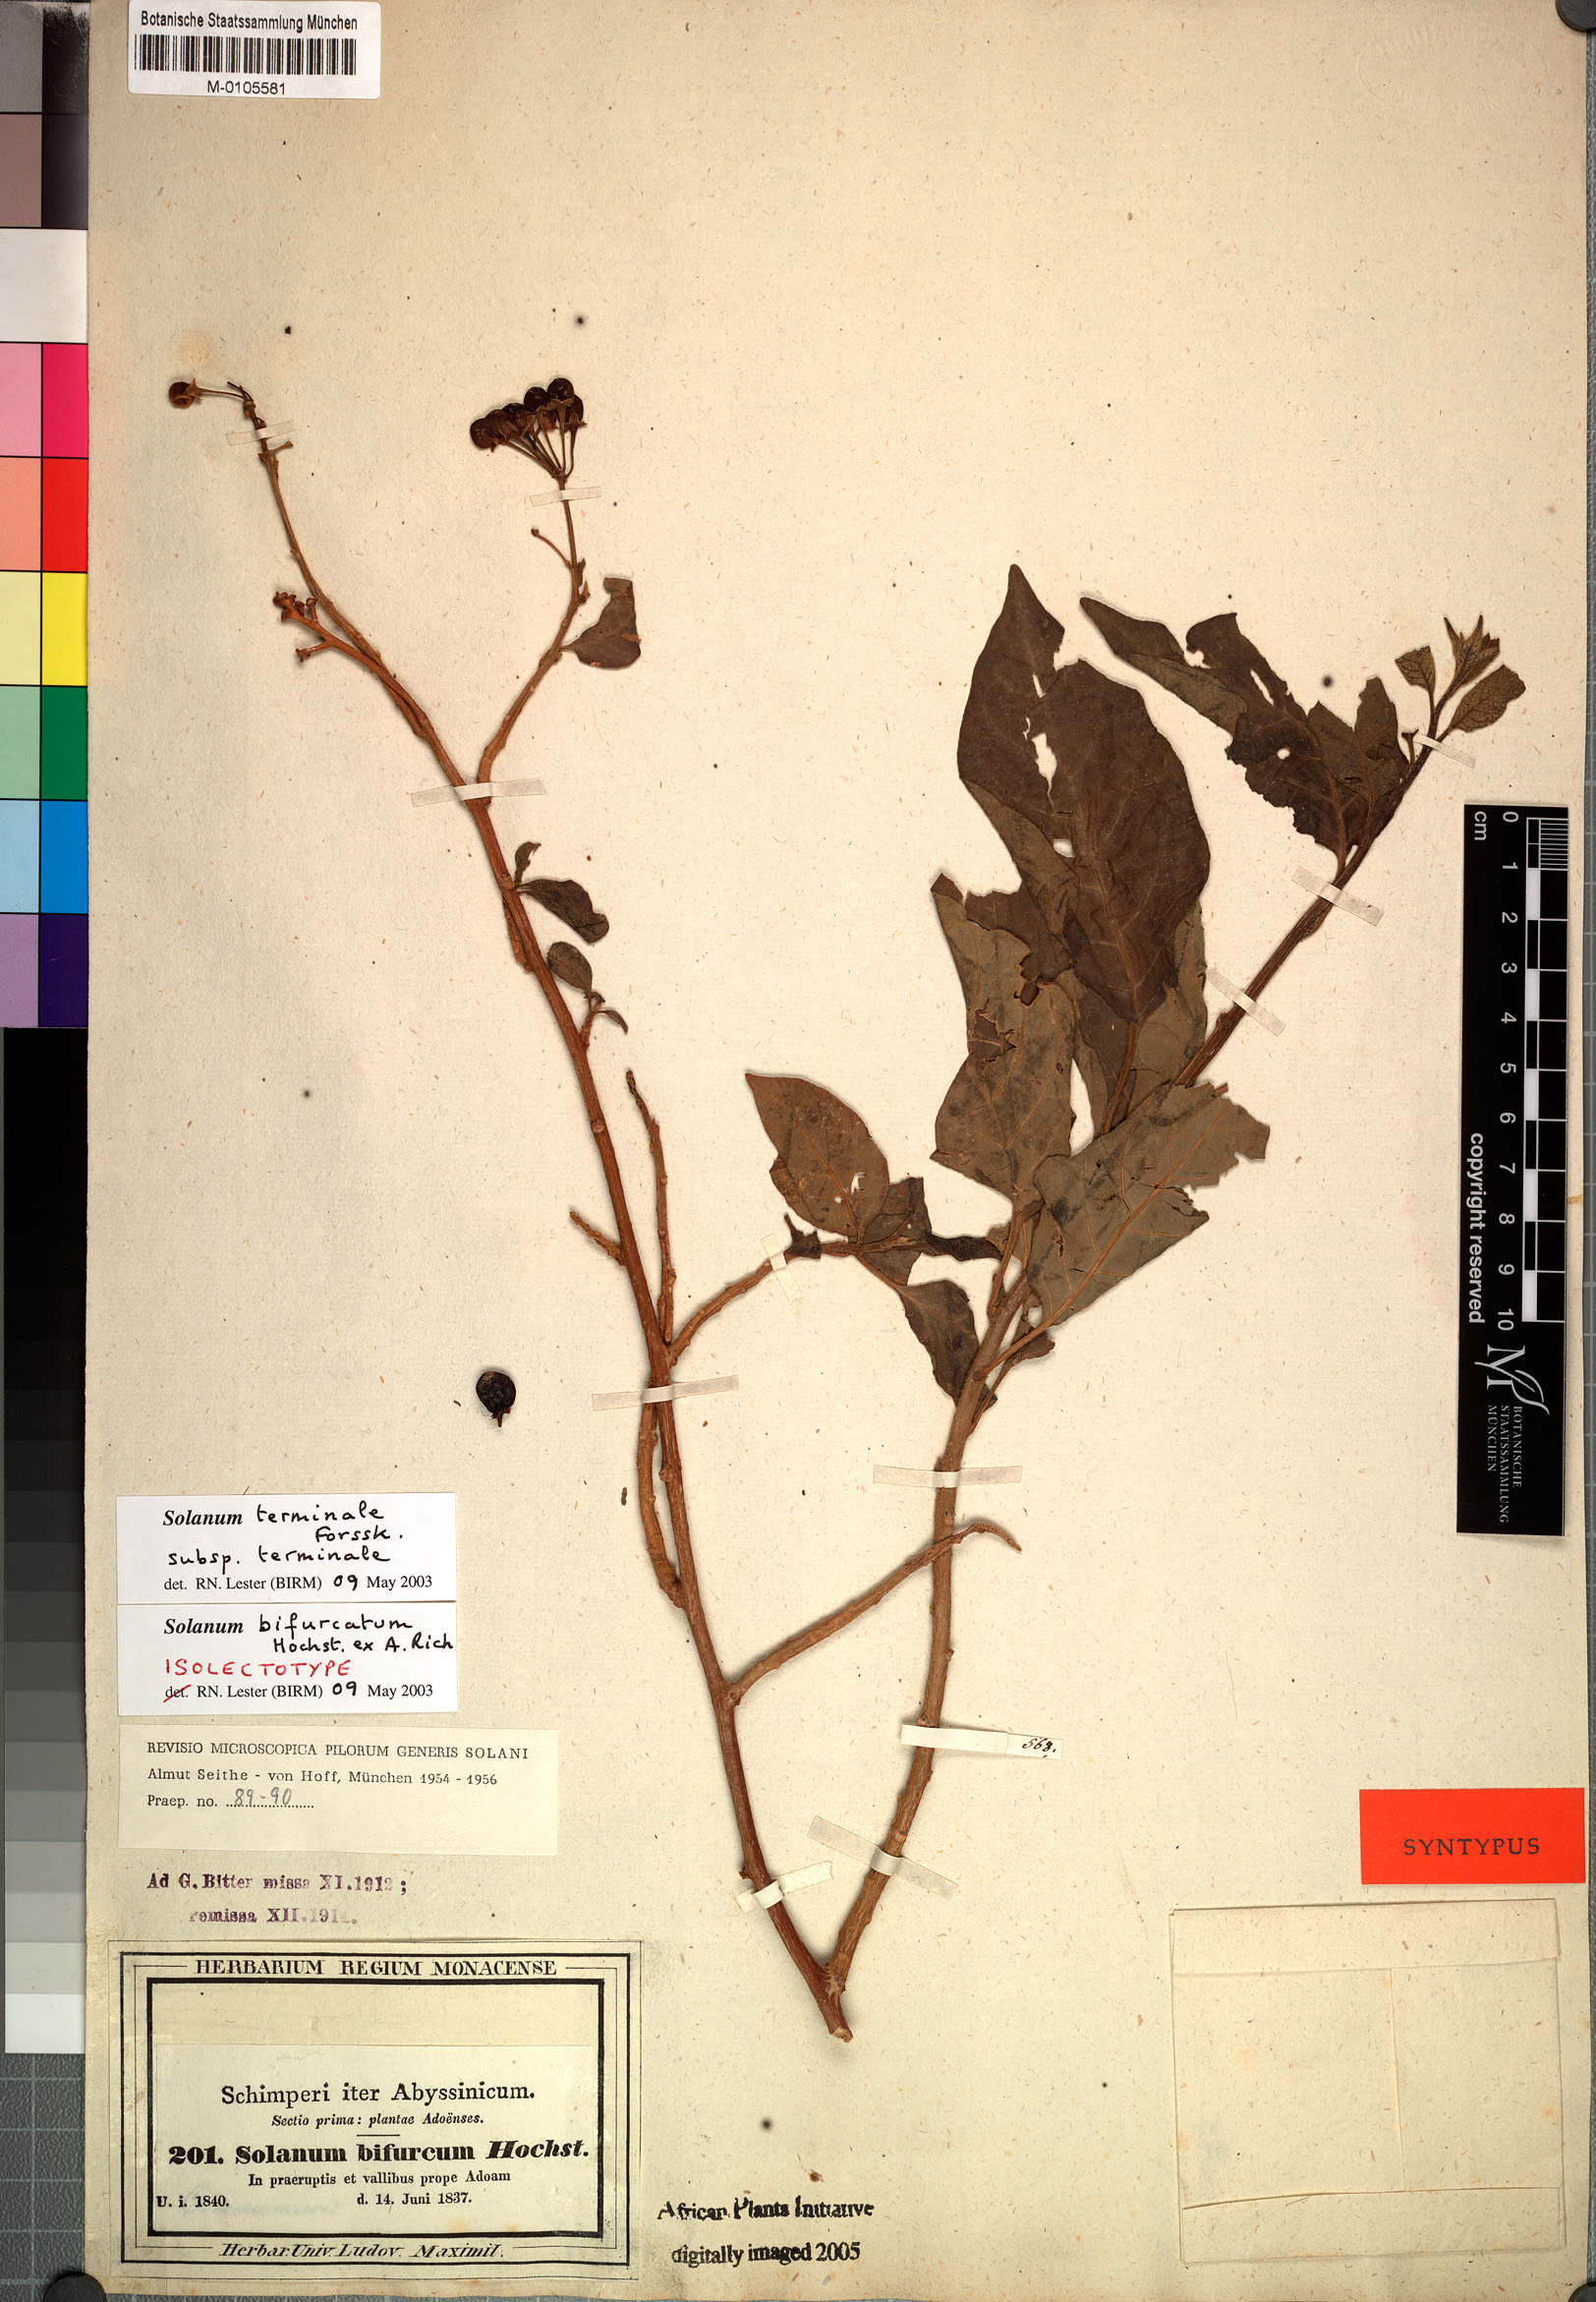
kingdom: Plantae
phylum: Tracheophyta
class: Magnoliopsida
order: Solanales
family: Solanaceae
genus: Solanum
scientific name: Solanum terminale
